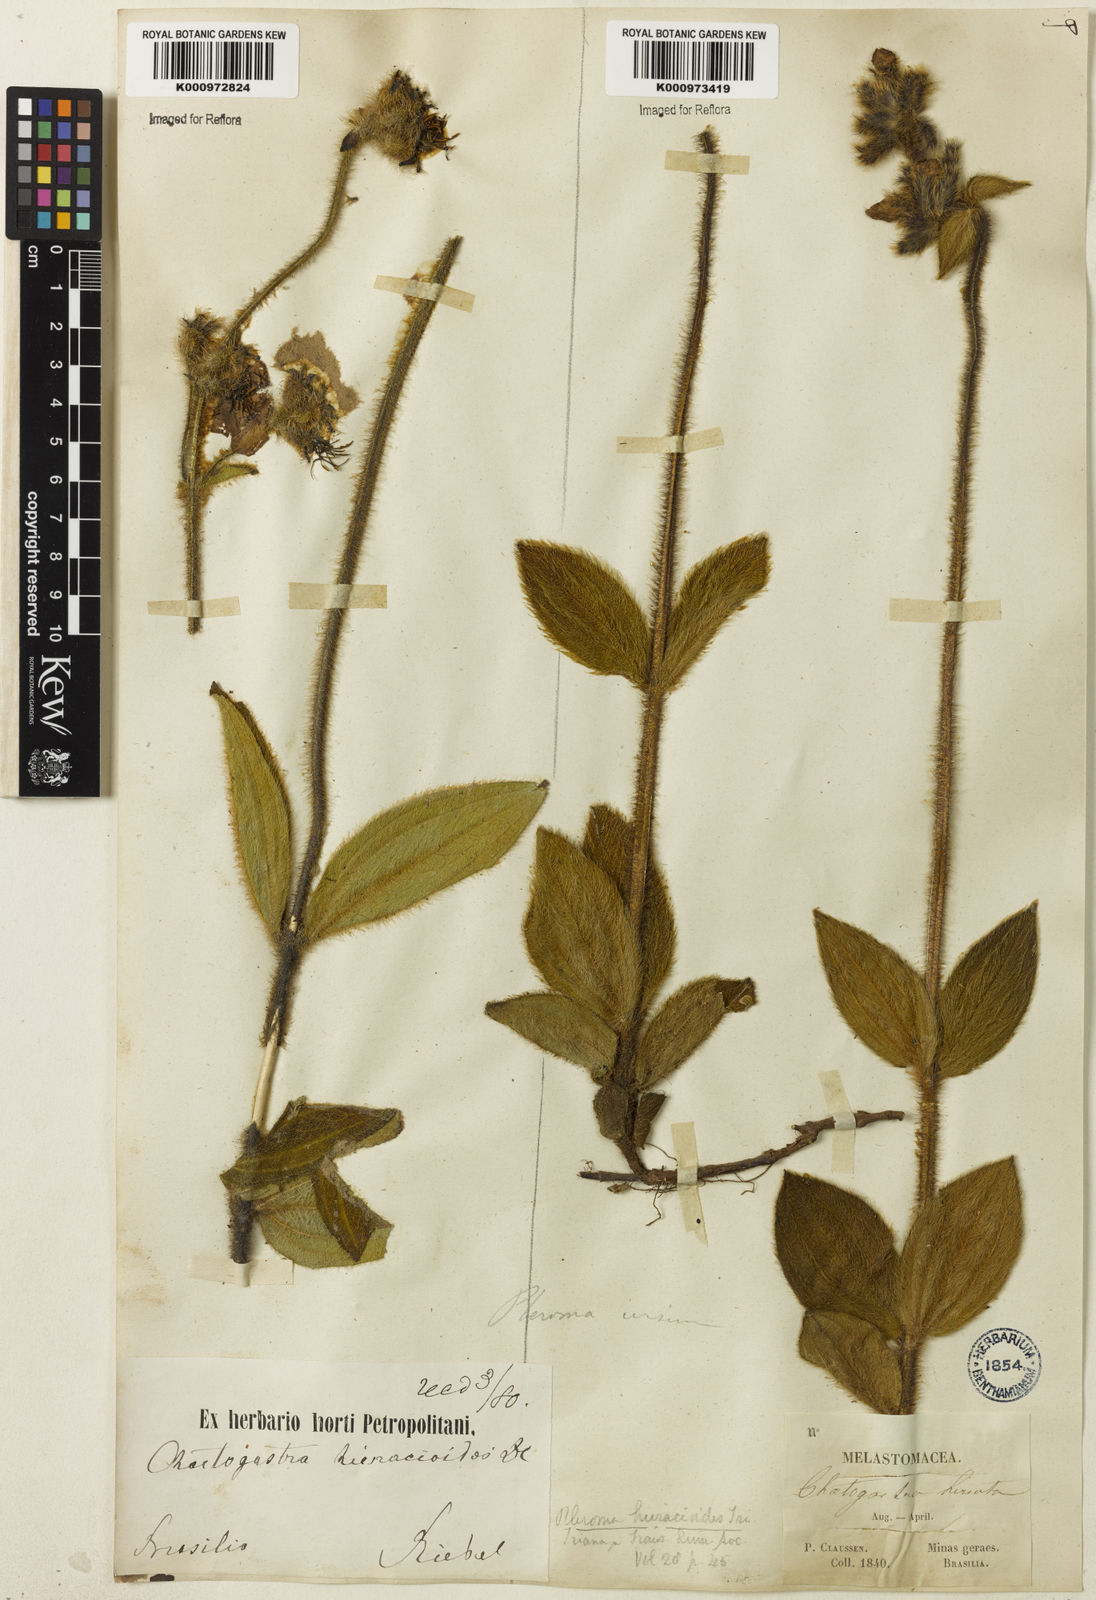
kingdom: Plantae
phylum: Tracheophyta
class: Magnoliopsida
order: Myrtales
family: Melastomataceae
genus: Chaetogastra
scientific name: Chaetogastra hieracioides
